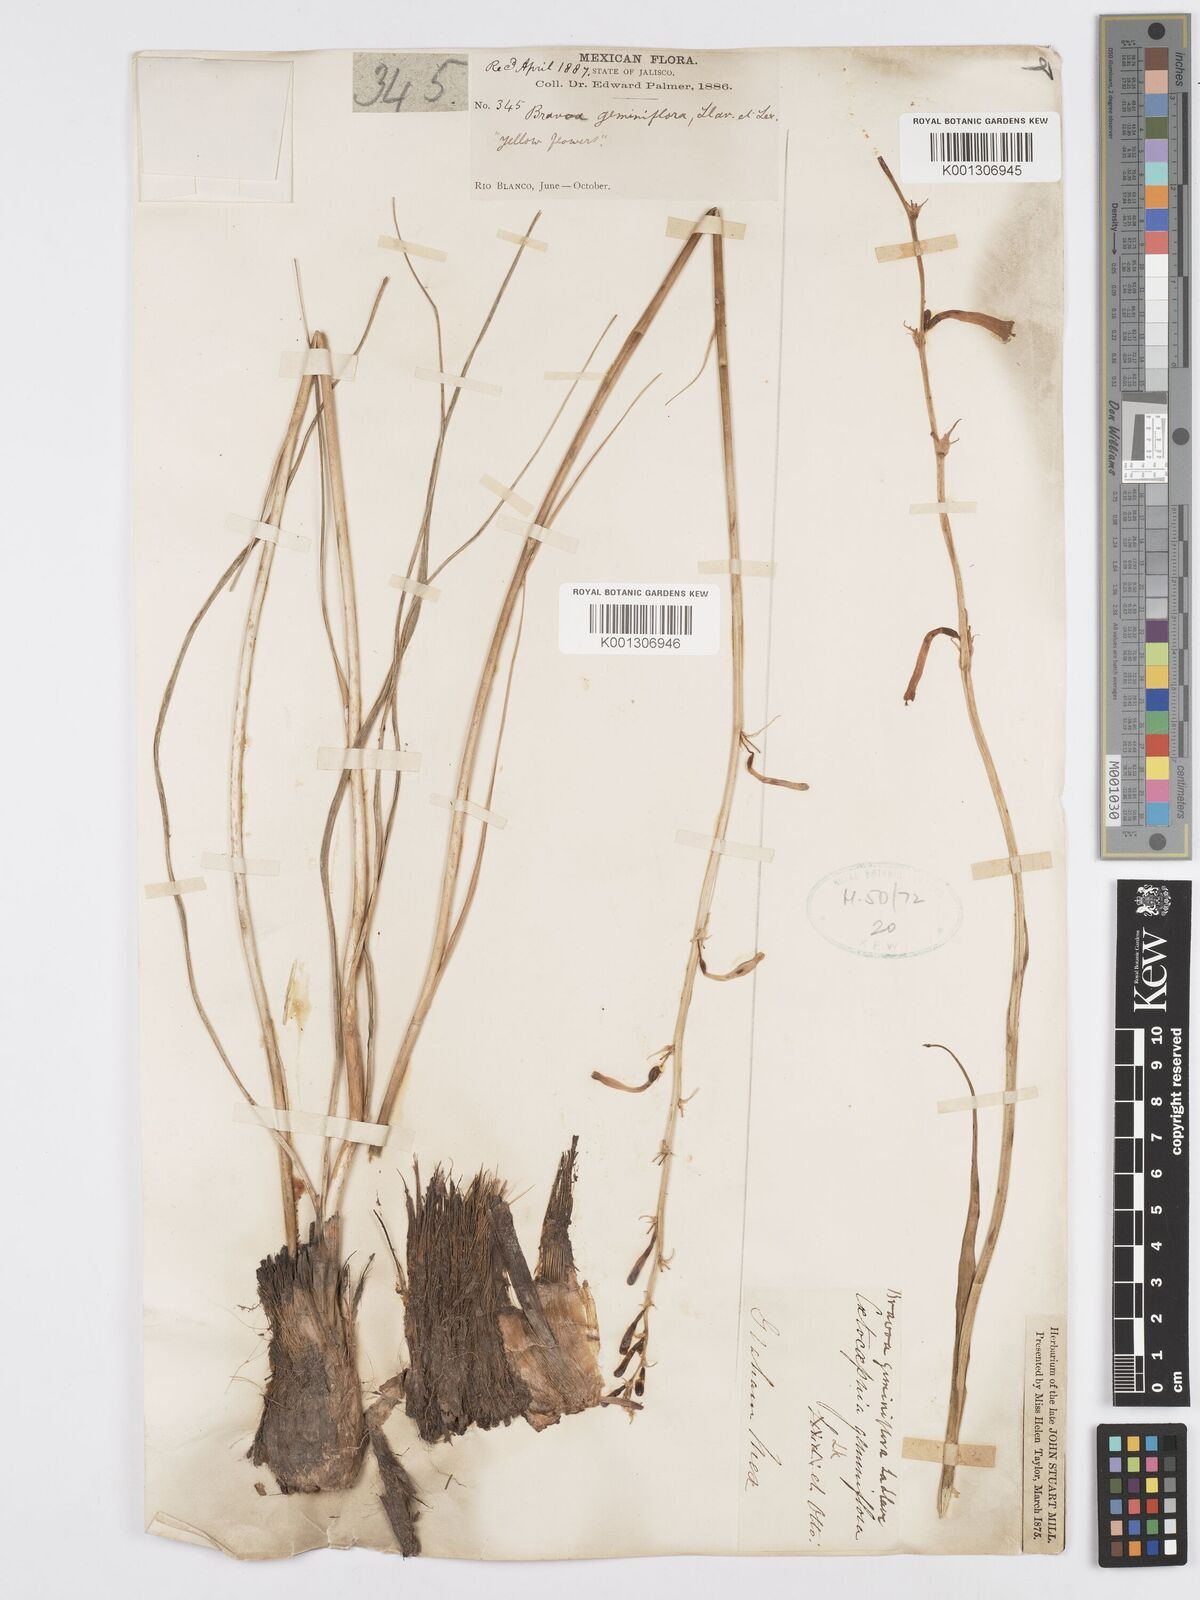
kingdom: Plantae
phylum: Tracheophyta
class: Liliopsida
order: Asparagales
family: Asparagaceae
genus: Agave
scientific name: Agave coetocapnia
